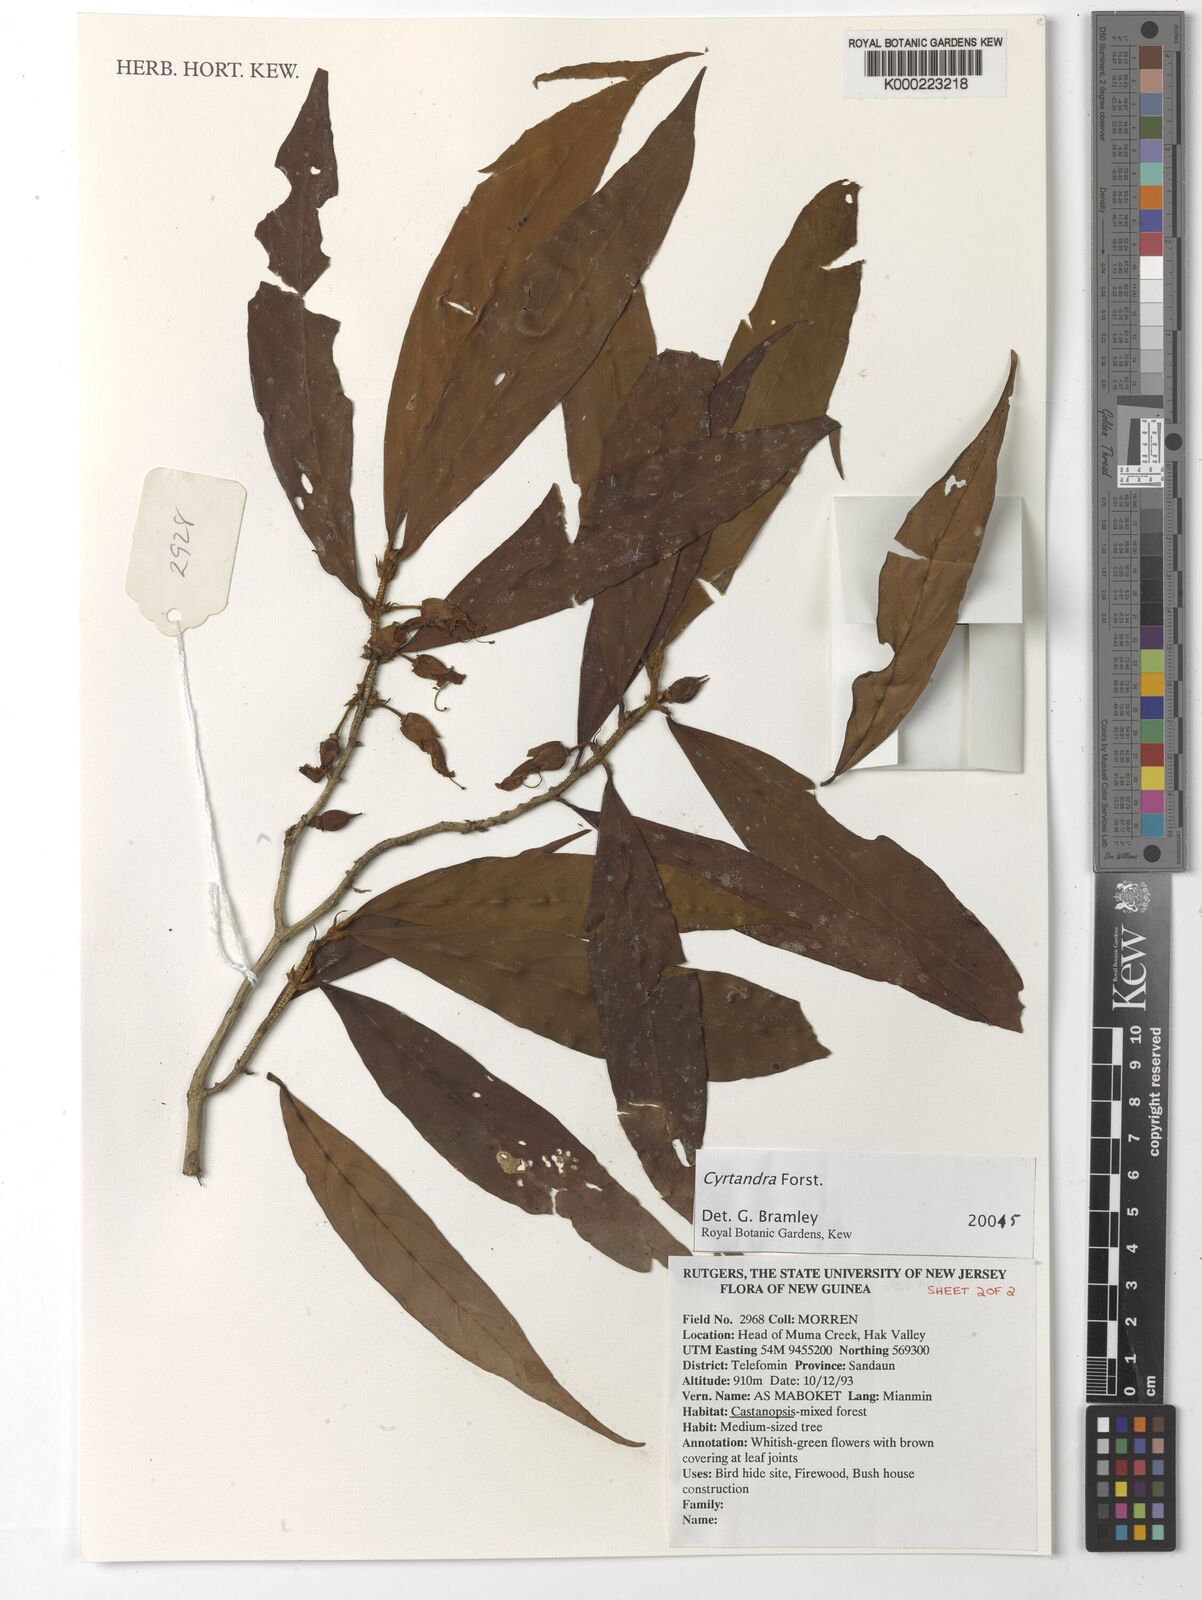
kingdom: Plantae
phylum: Tracheophyta
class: Magnoliopsida
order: Lamiales
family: Gesneriaceae
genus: Cyrtandra
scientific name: Cyrtandra
